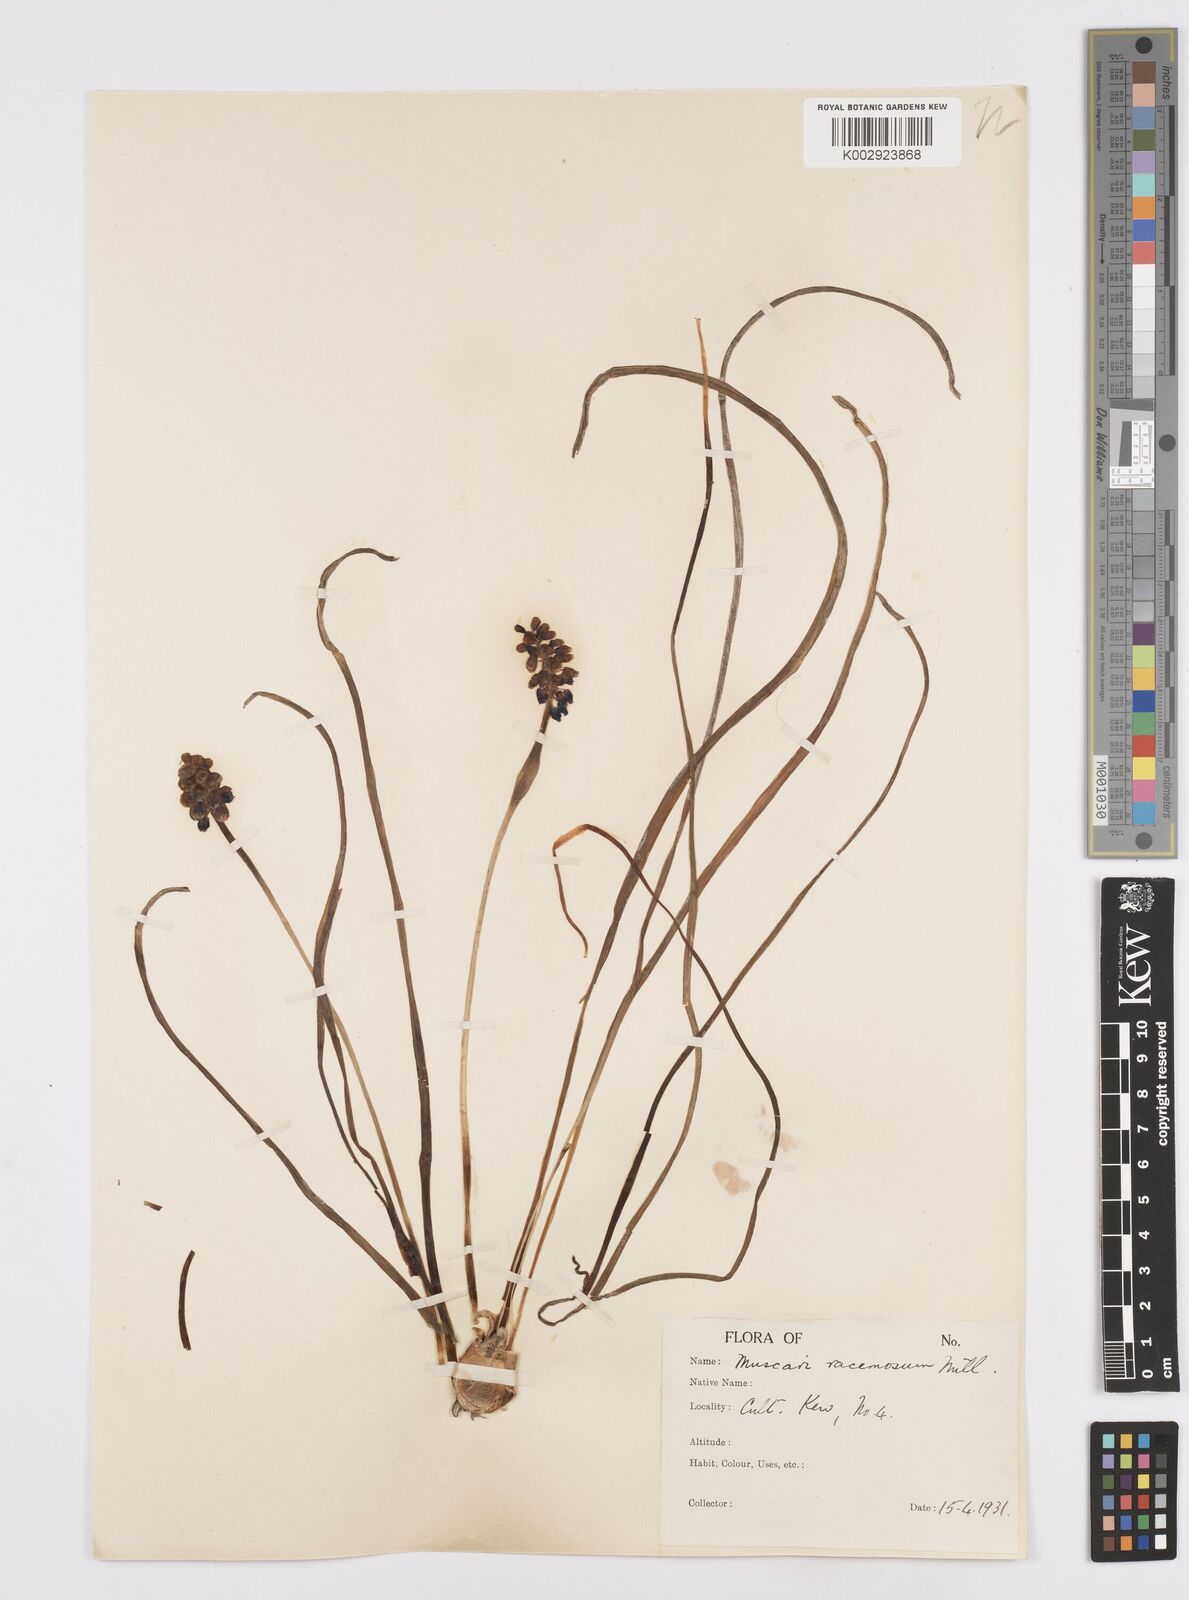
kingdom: Plantae
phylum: Tracheophyta
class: Liliopsida
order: Asparagales
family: Asparagaceae
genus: Muscarimia
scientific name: Muscarimia muscari
